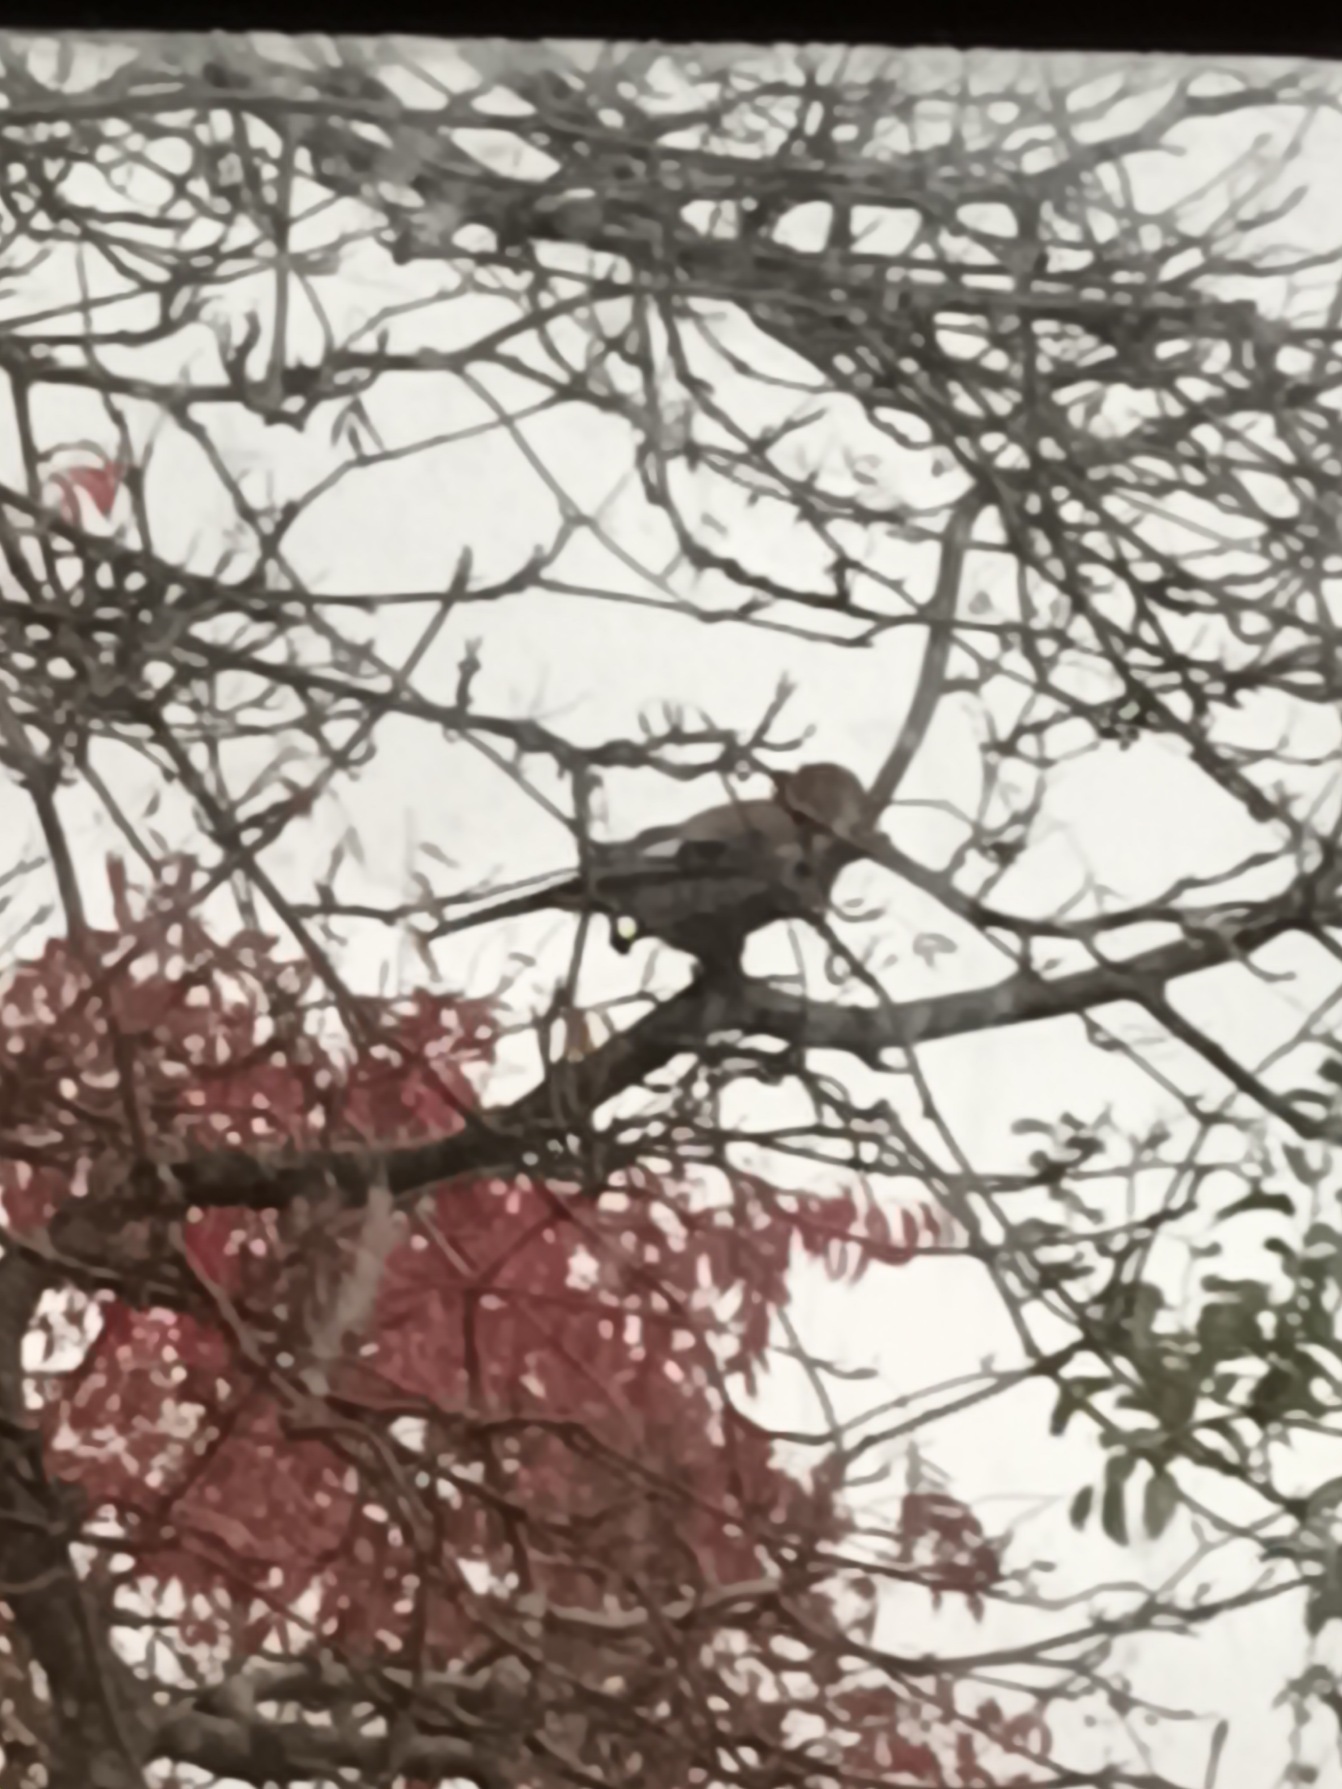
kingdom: Animalia
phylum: Chordata
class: Aves
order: Passeriformes
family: Corvidae
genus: Garrulus
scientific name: Garrulus glandarius
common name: Skovskade
